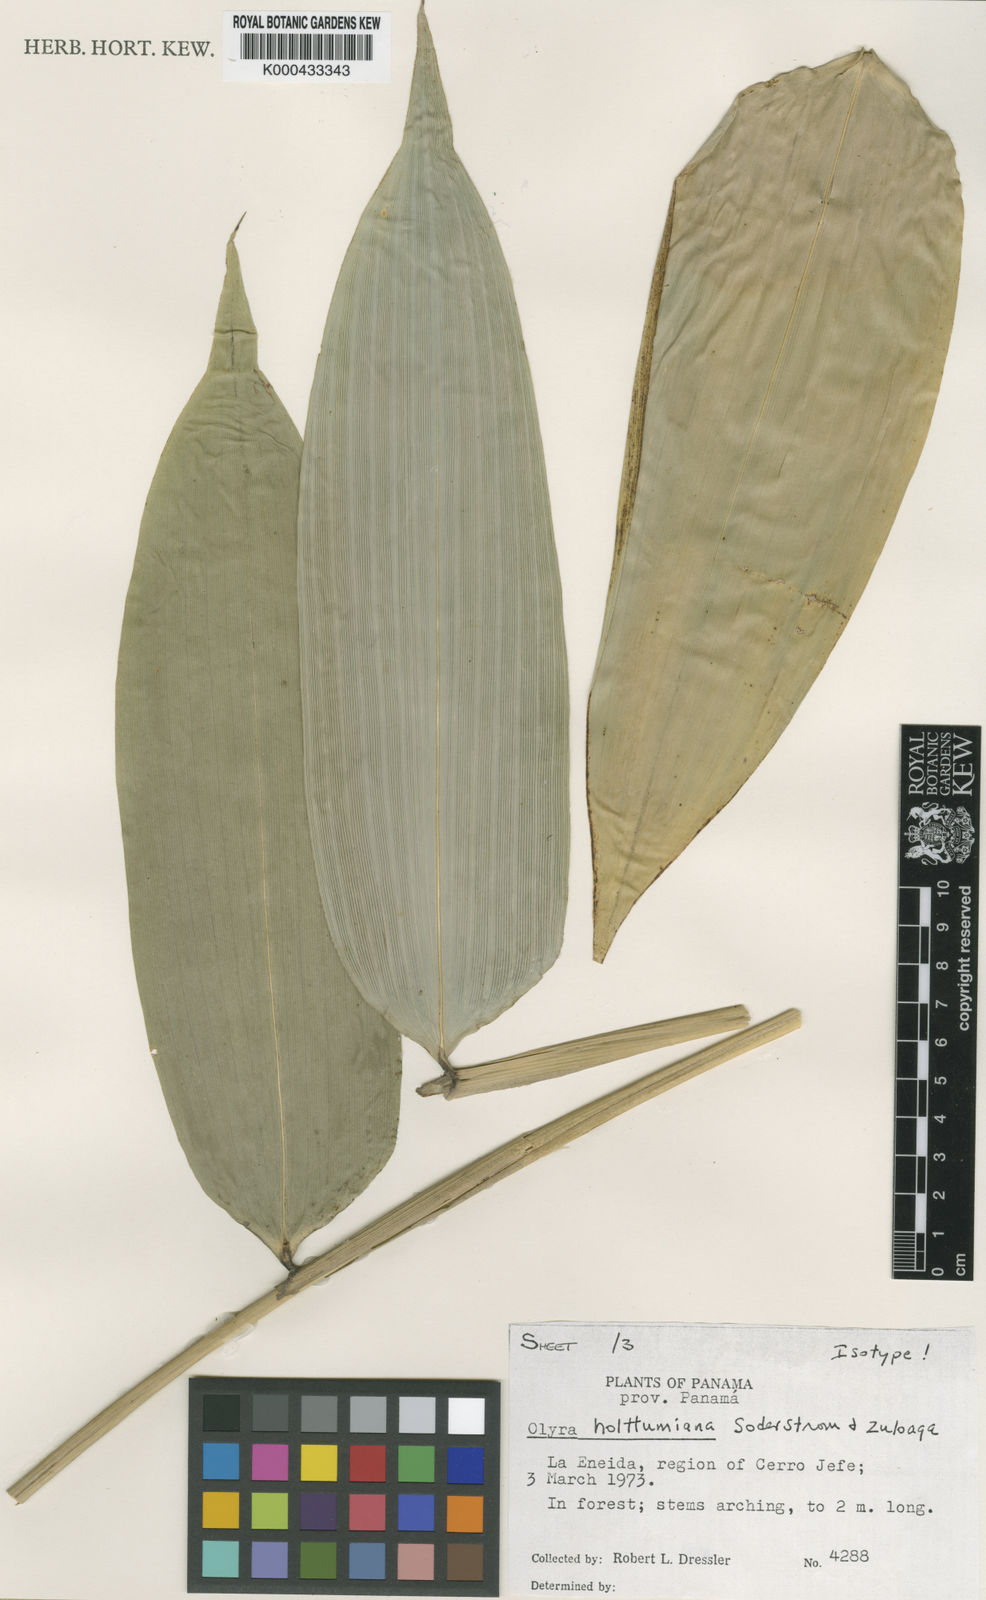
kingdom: Plantae
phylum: Tracheophyta
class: Liliopsida
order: Poales
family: Poaceae
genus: Olyra
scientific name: Olyra holttumiana
